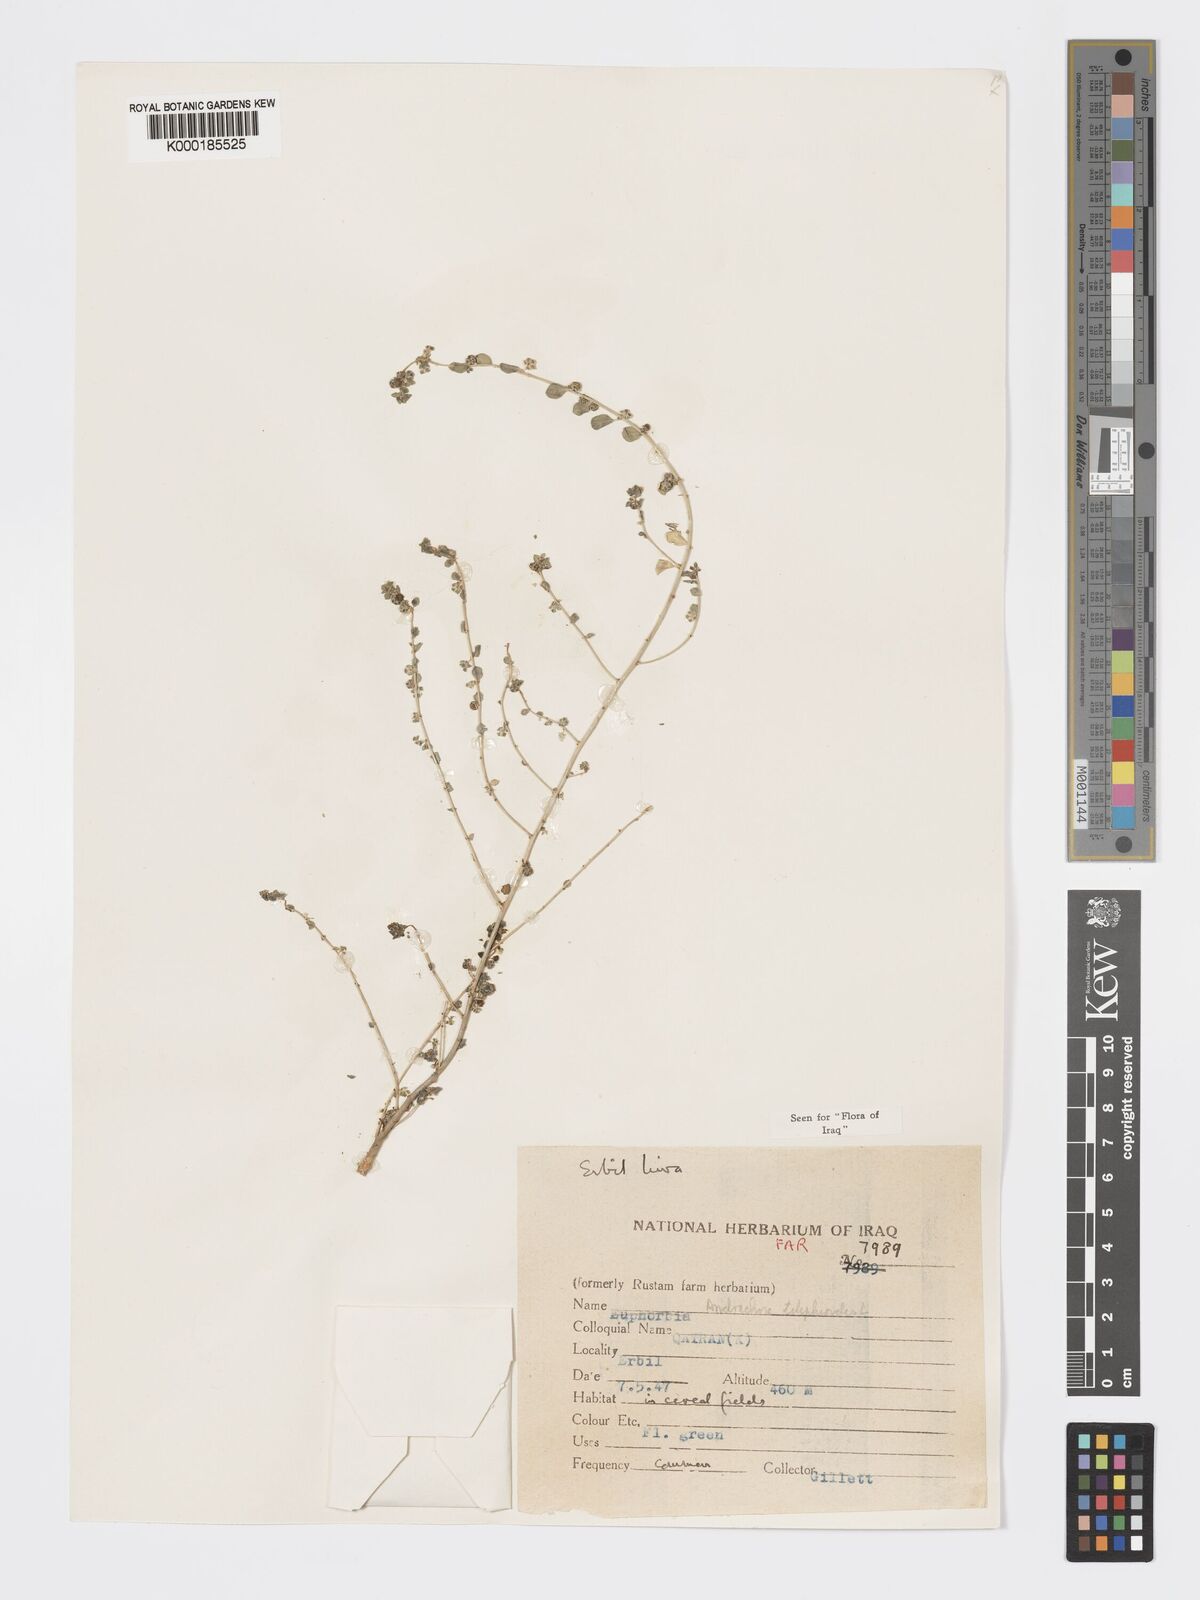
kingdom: Plantae
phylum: Tracheophyta
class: Magnoliopsida
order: Malpighiales
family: Phyllanthaceae
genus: Andrachne
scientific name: Andrachne telephioides
